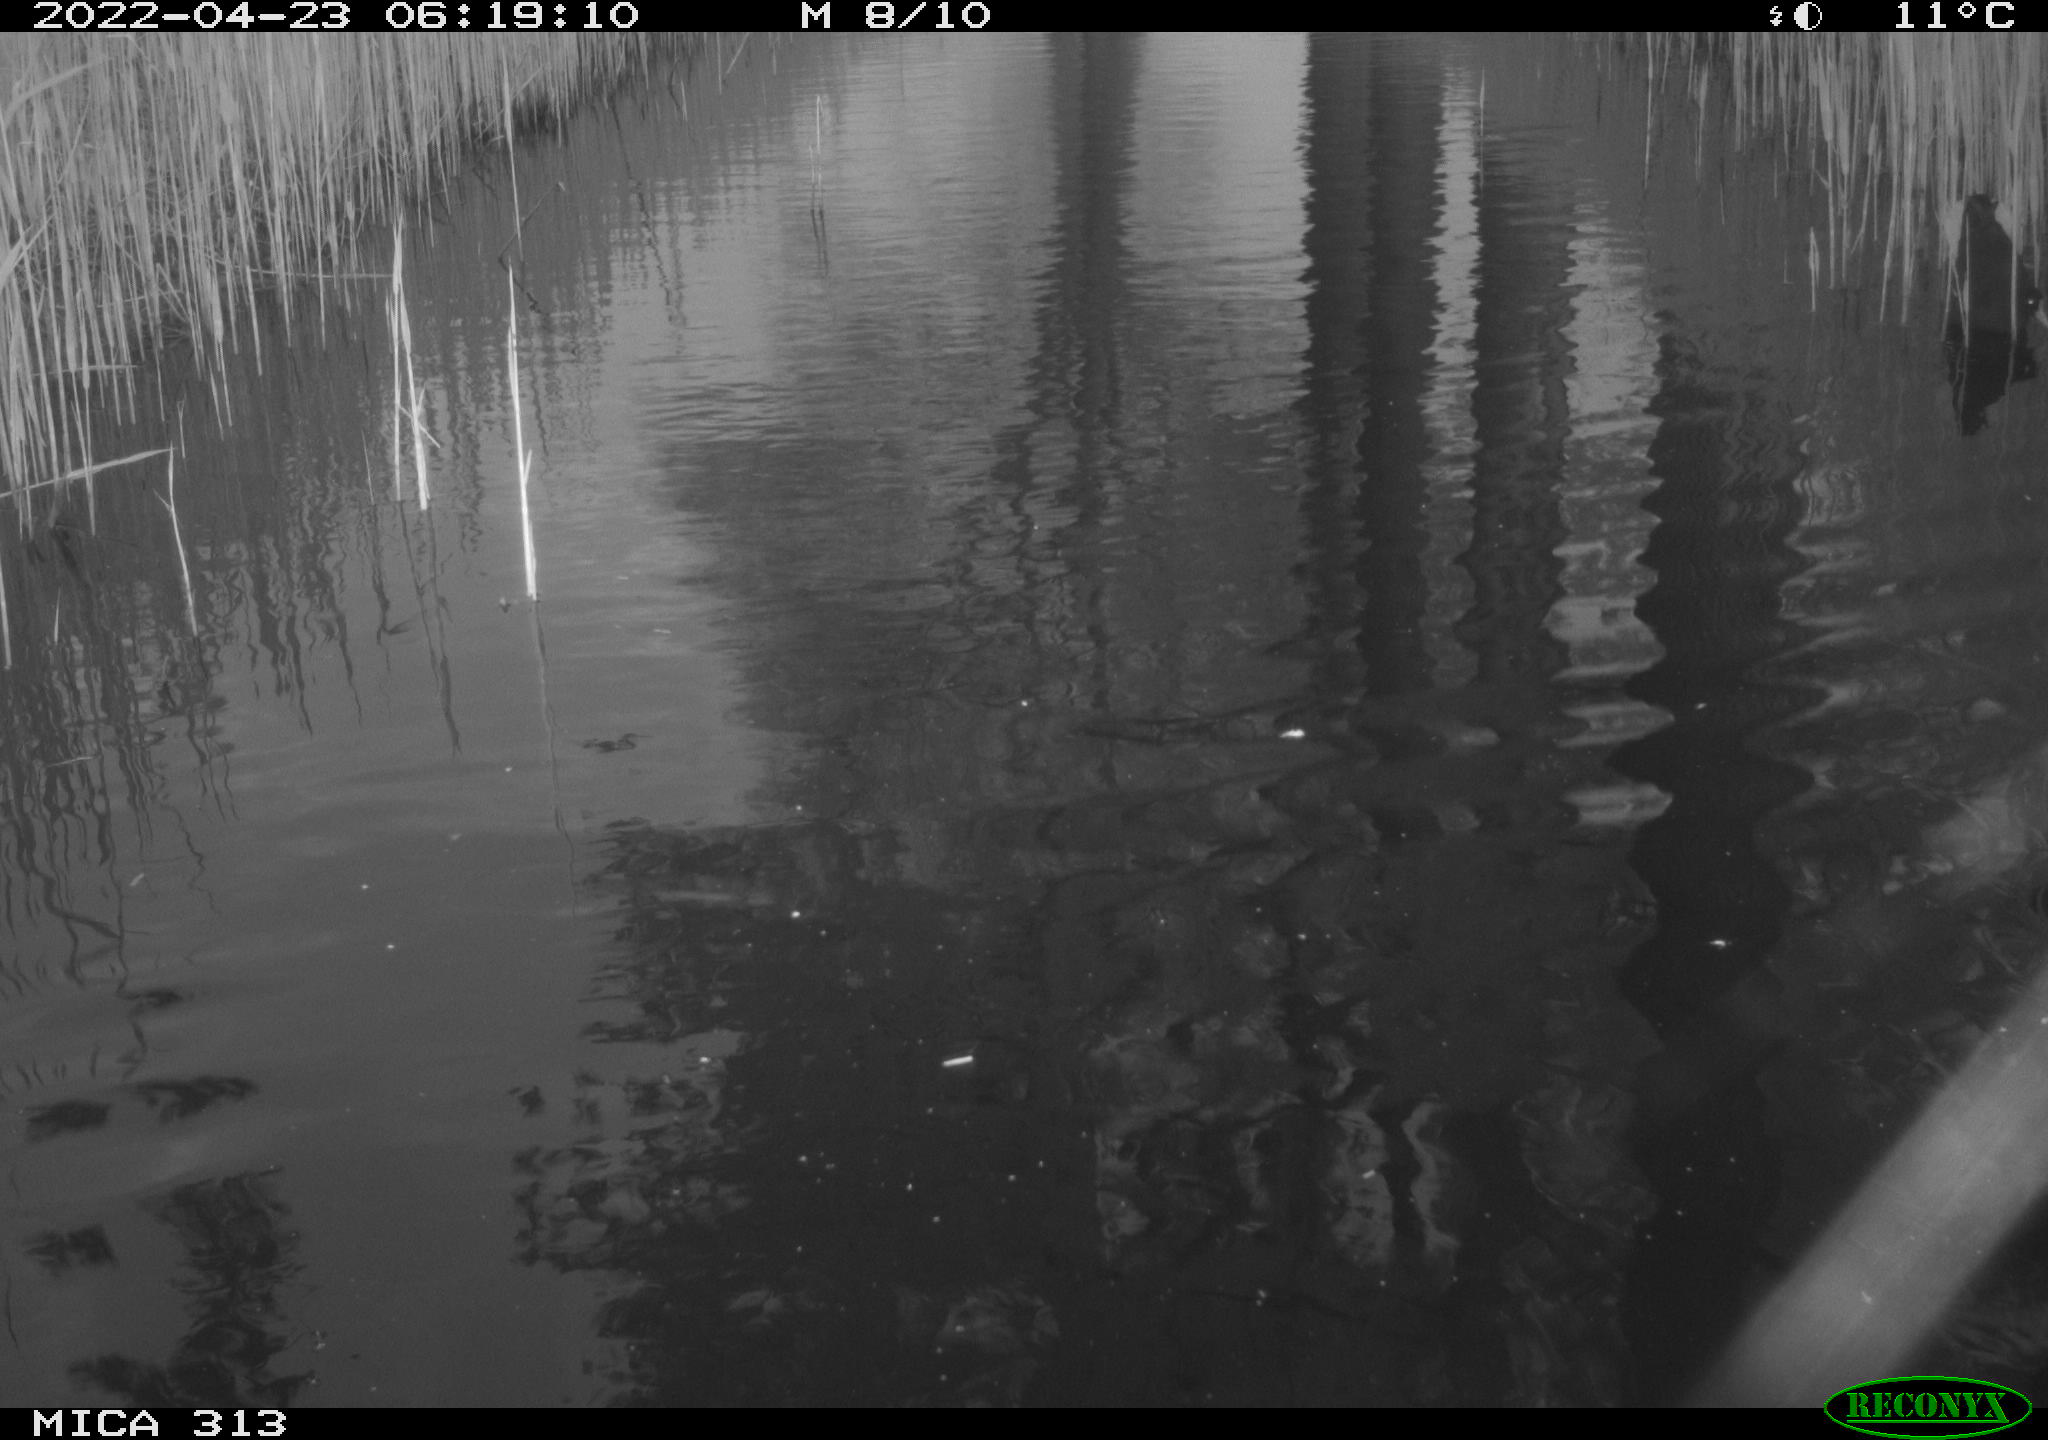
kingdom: Animalia
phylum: Chordata
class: Aves
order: Gruiformes
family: Rallidae
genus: Gallinula
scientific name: Gallinula chloropus
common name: Common moorhen
